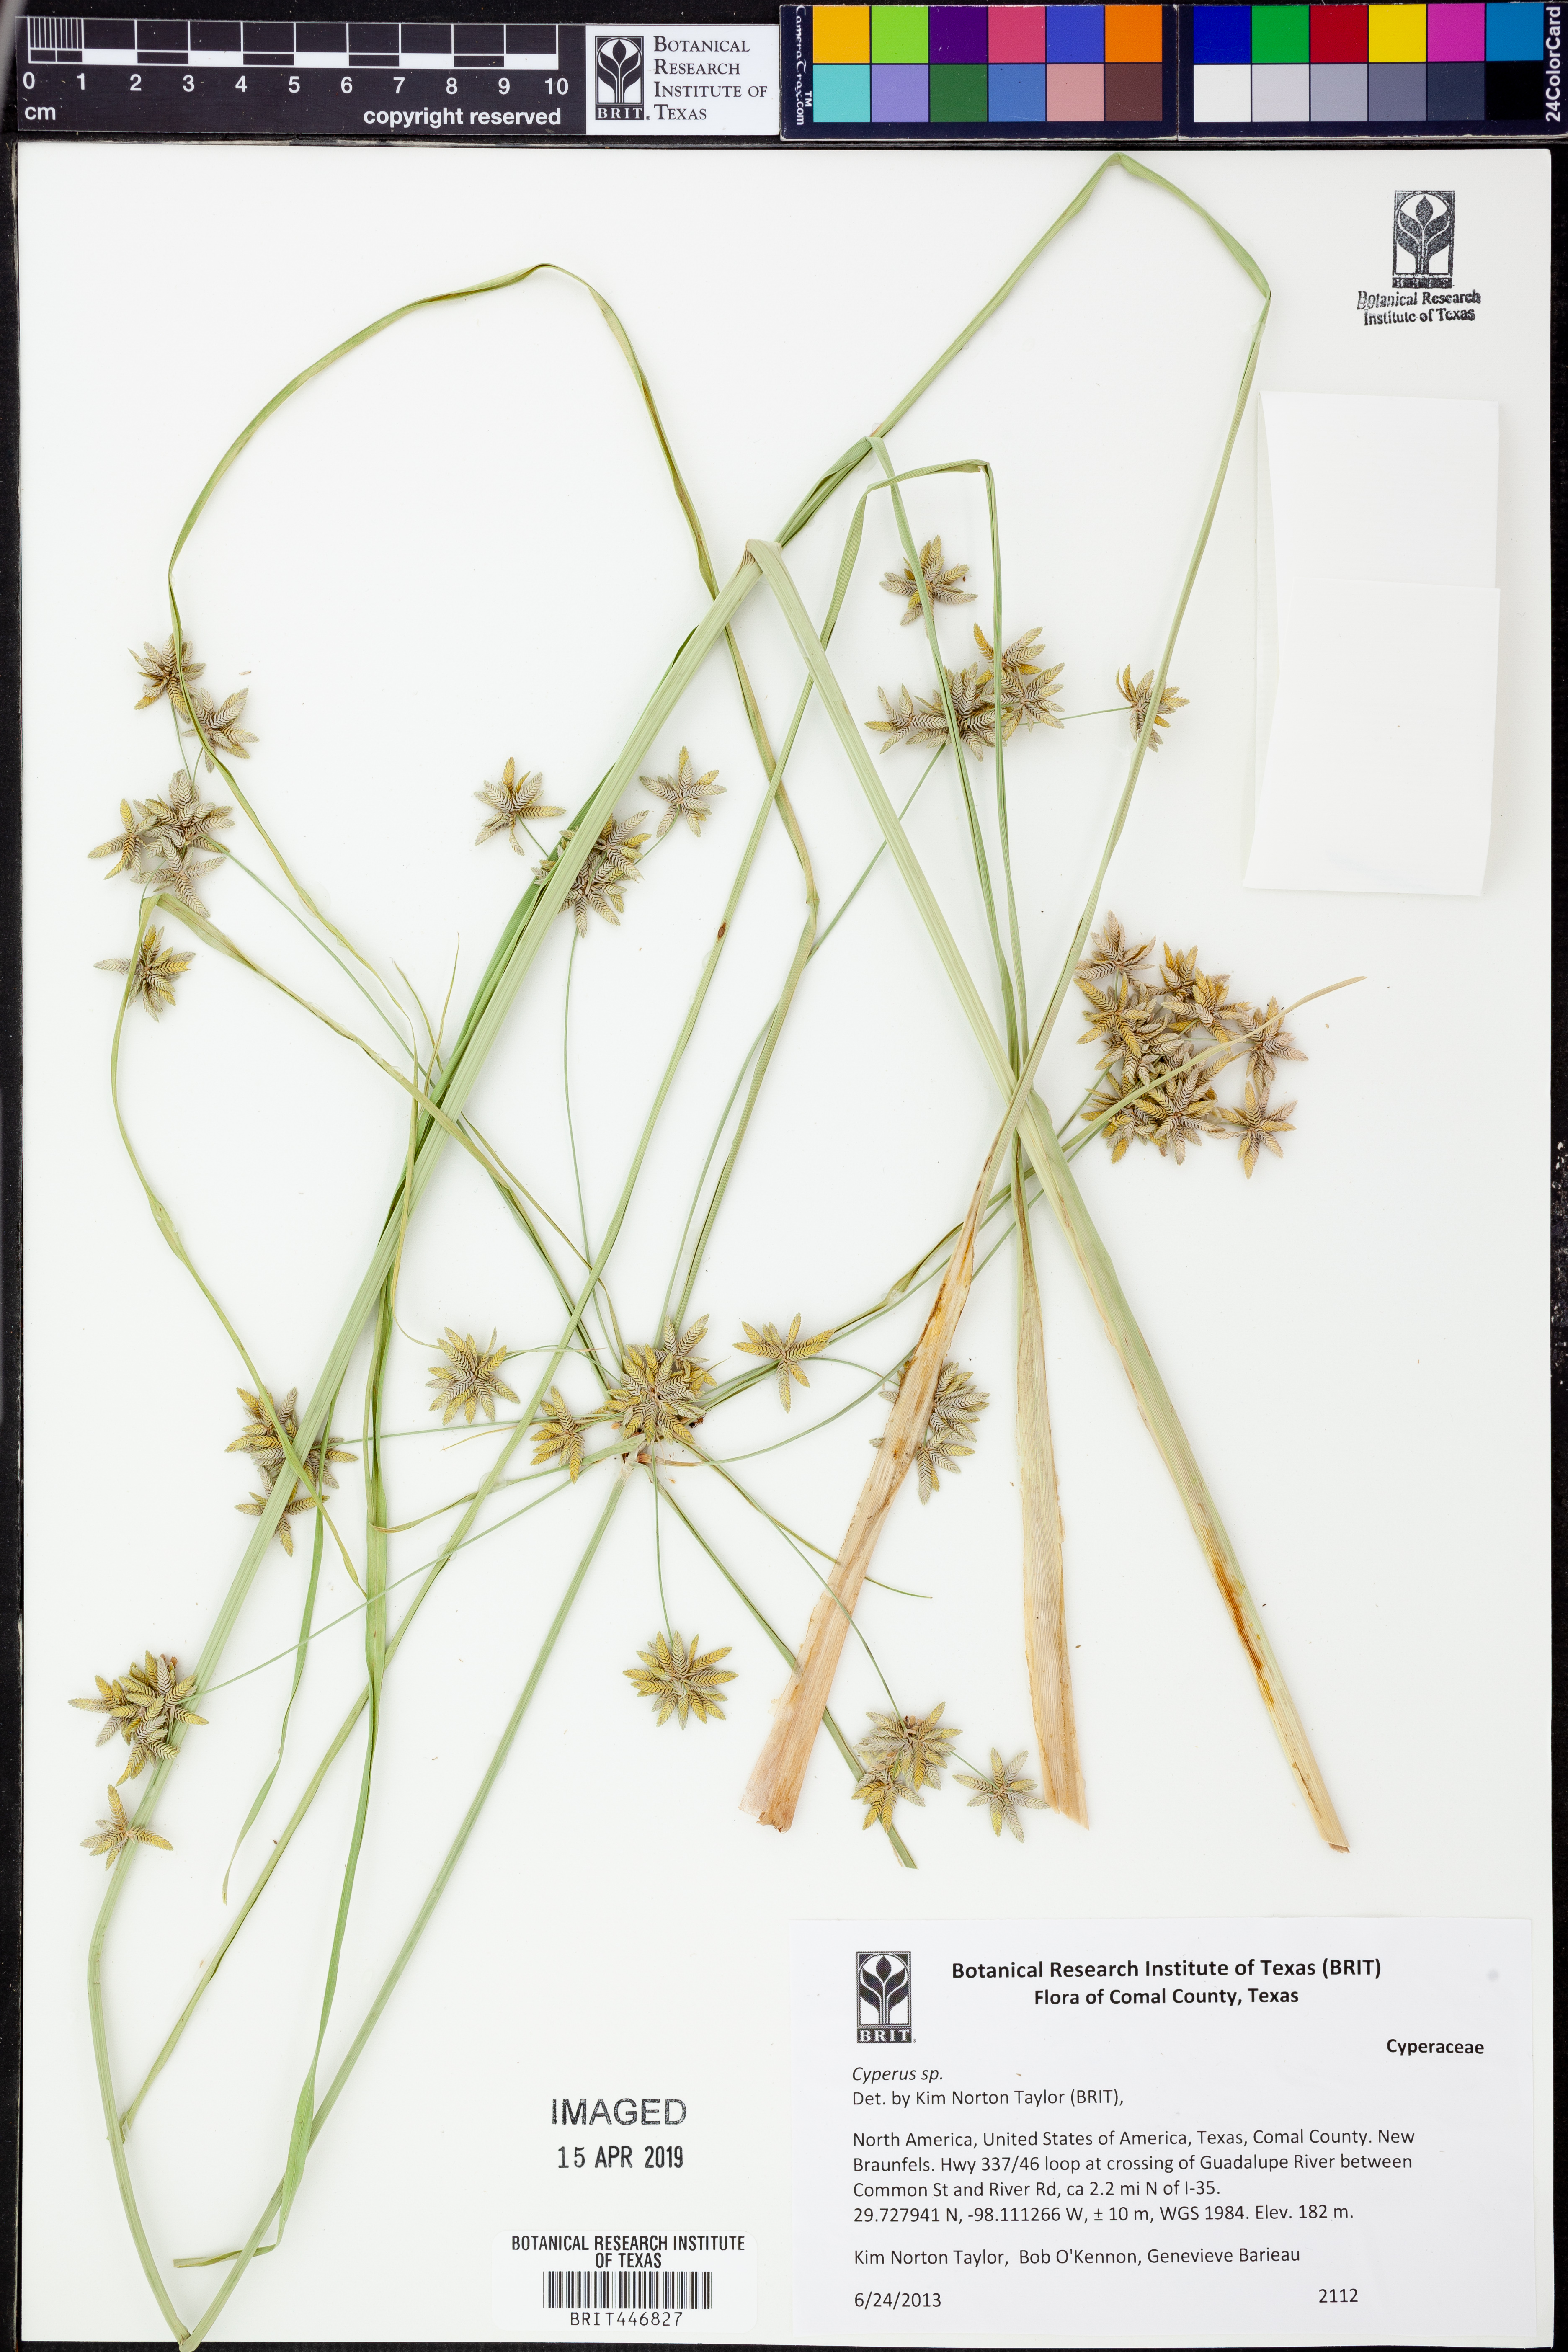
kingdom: Plantae
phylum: Tracheophyta
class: Liliopsida
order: Poales
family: Cyperaceae
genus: Cyperus
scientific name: Cyperus
